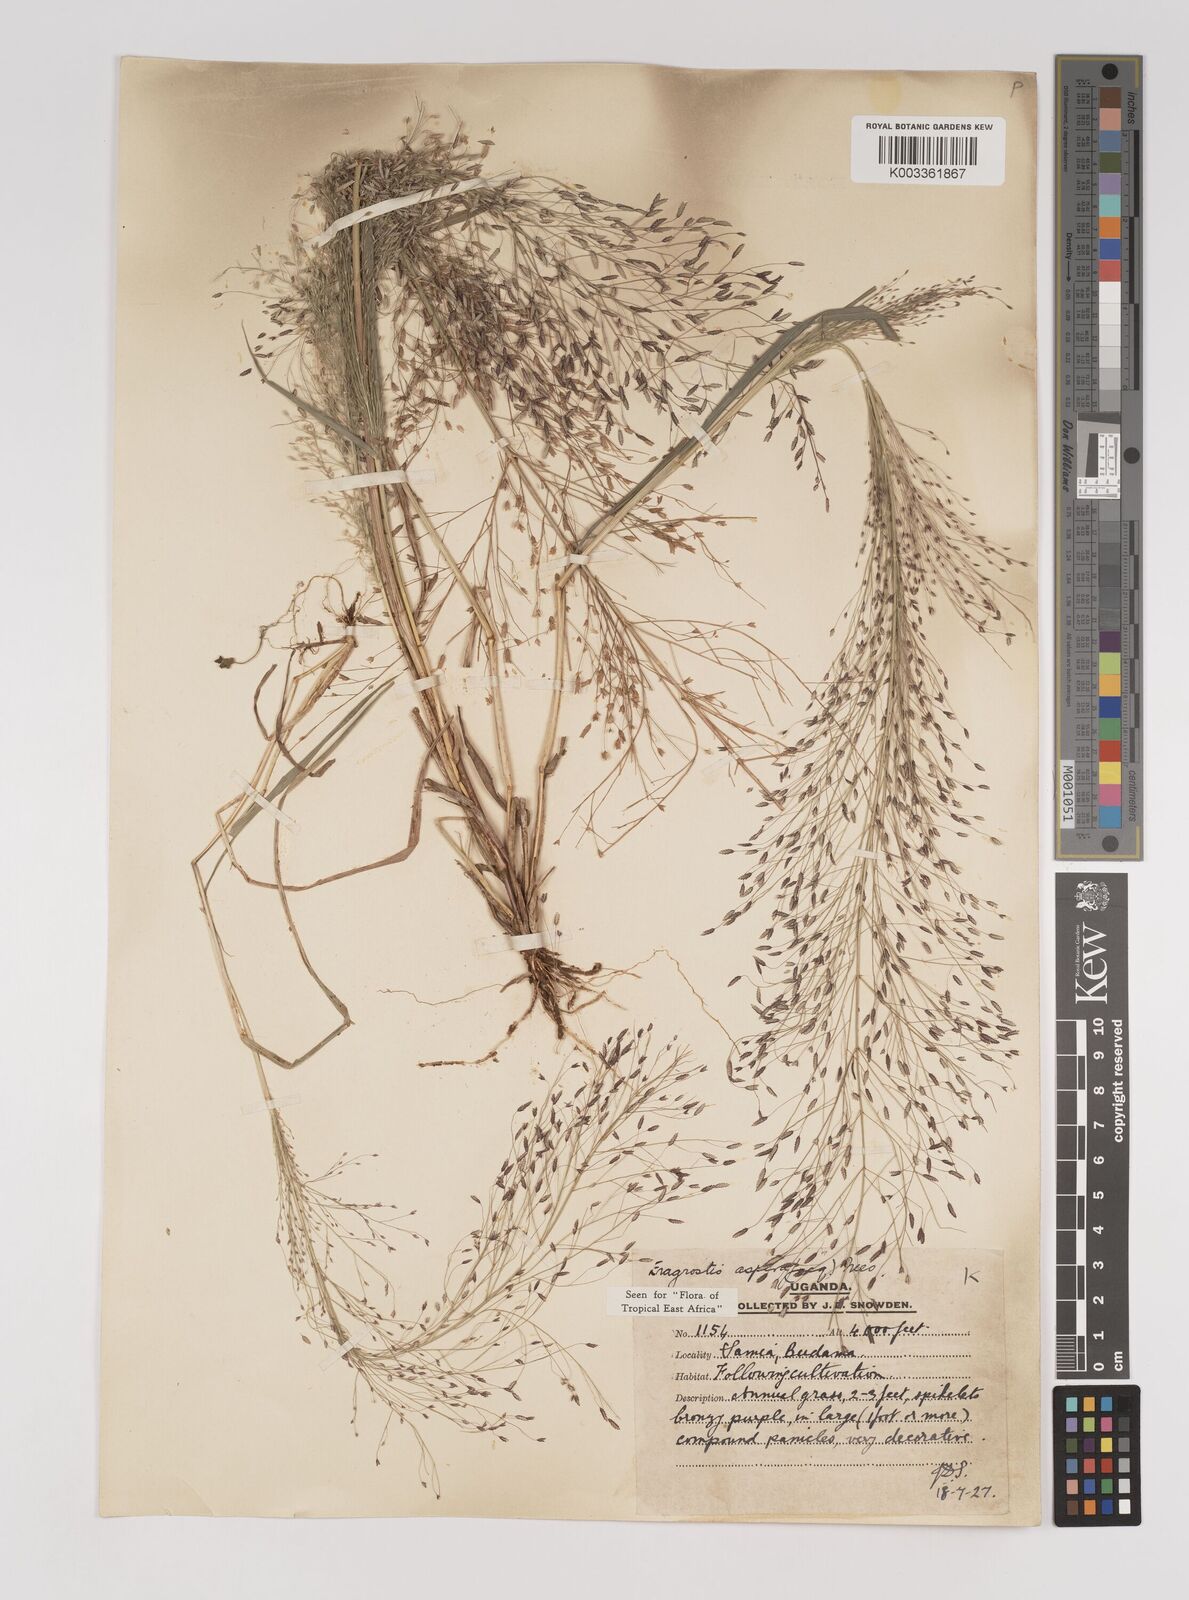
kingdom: Plantae
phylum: Tracheophyta
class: Liliopsida
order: Poales
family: Poaceae
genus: Eragrostis
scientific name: Eragrostis aspera
